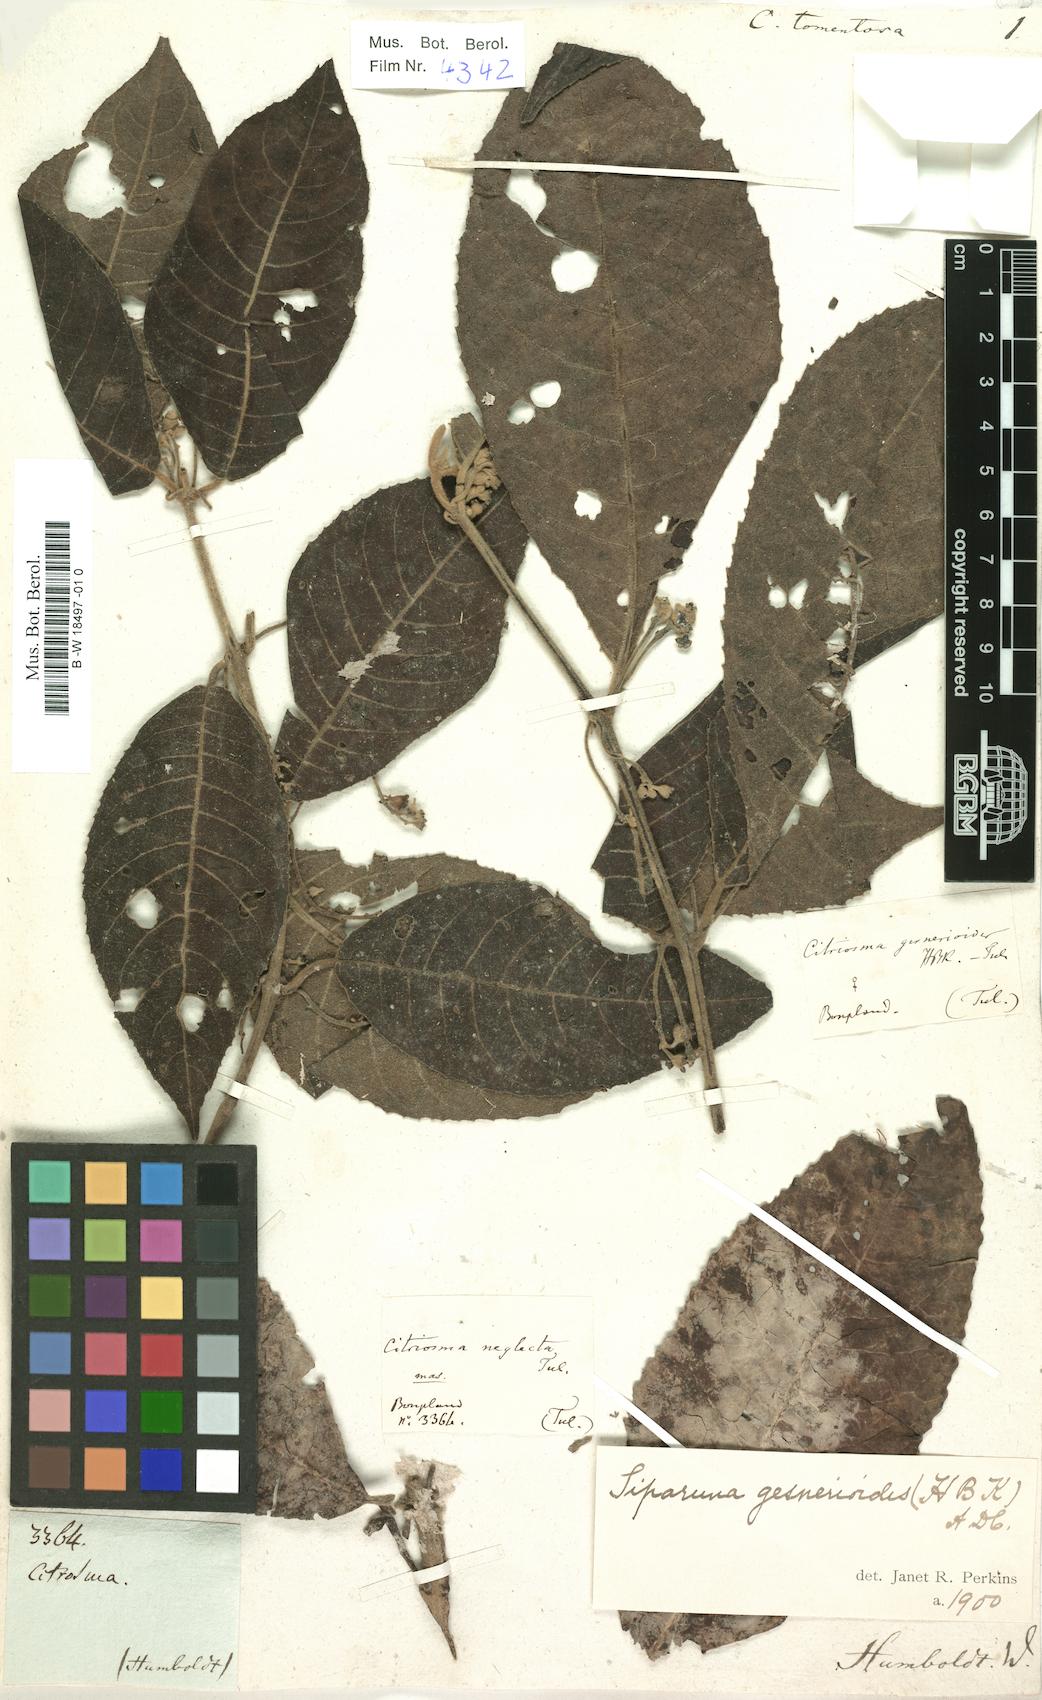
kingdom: Plantae
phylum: Tracheophyta
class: Magnoliopsida
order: Laurales
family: Siparunaceae
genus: Siparuna
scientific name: Siparuna muricata
